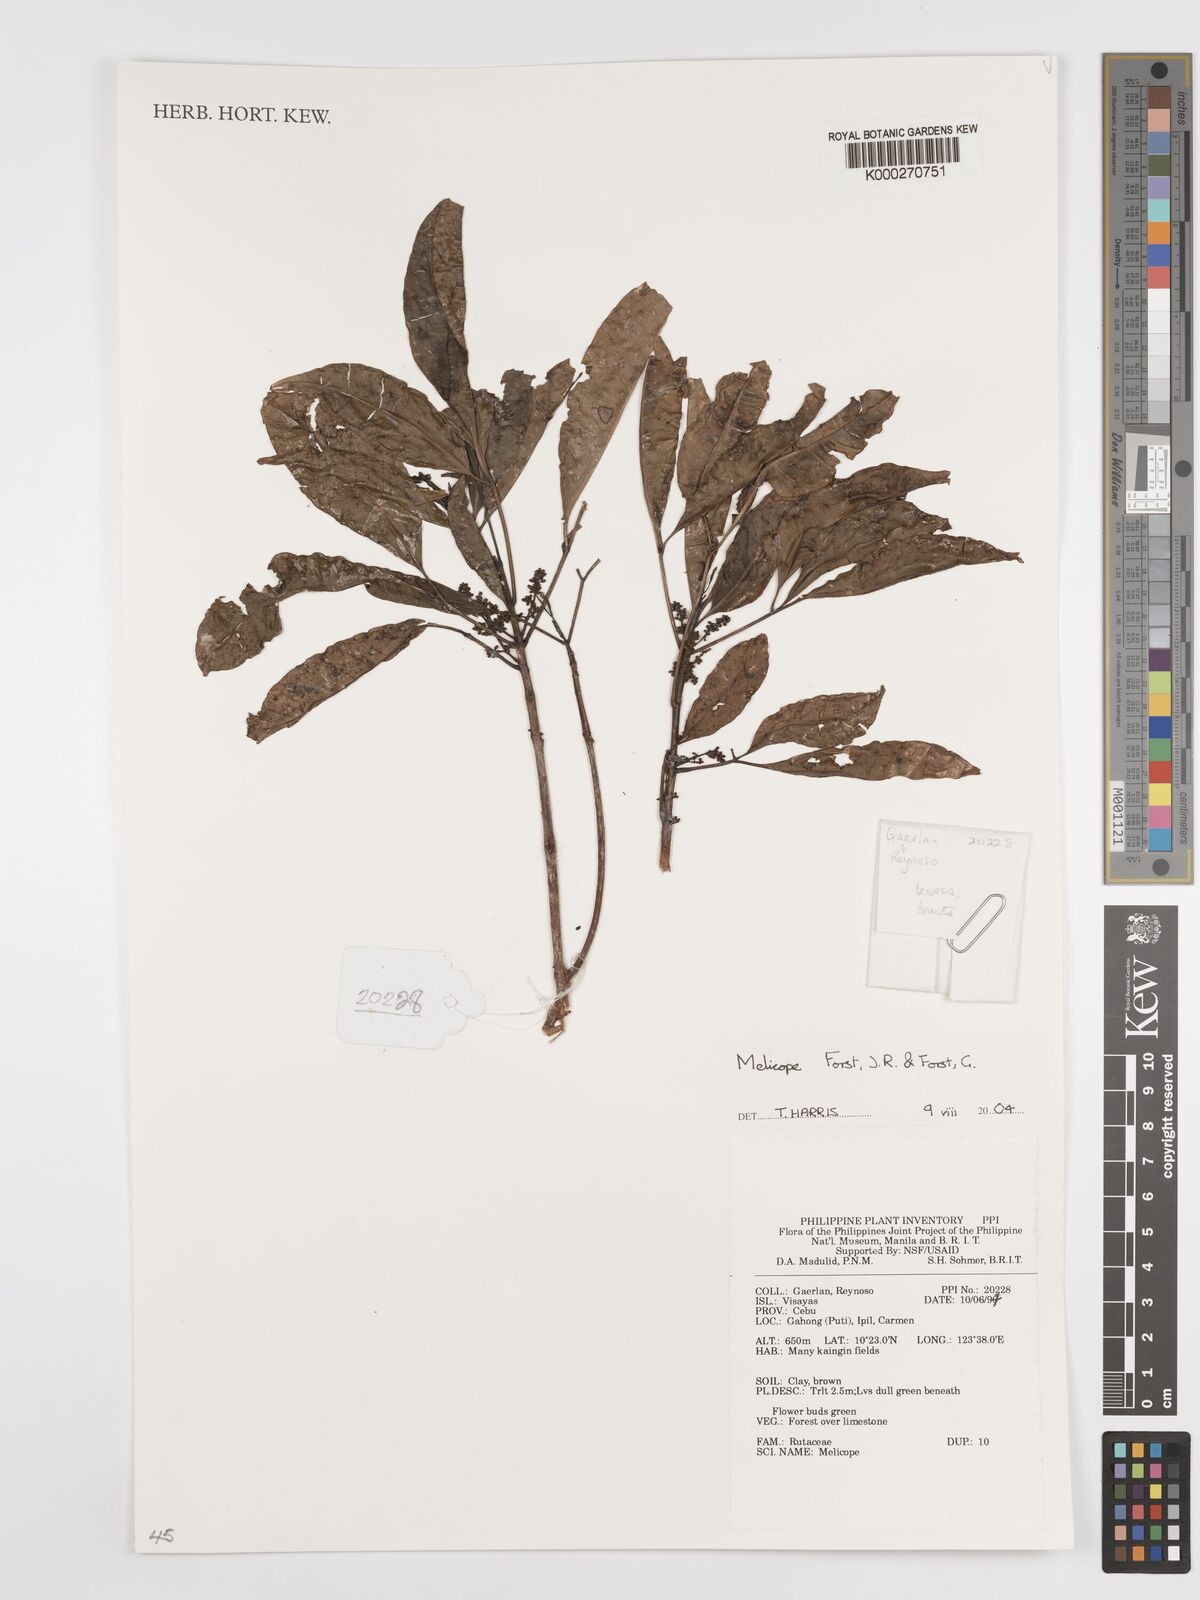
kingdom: Plantae
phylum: Tracheophyta
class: Magnoliopsida
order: Sapindales
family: Rutaceae
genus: Melicope
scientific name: Melicope
